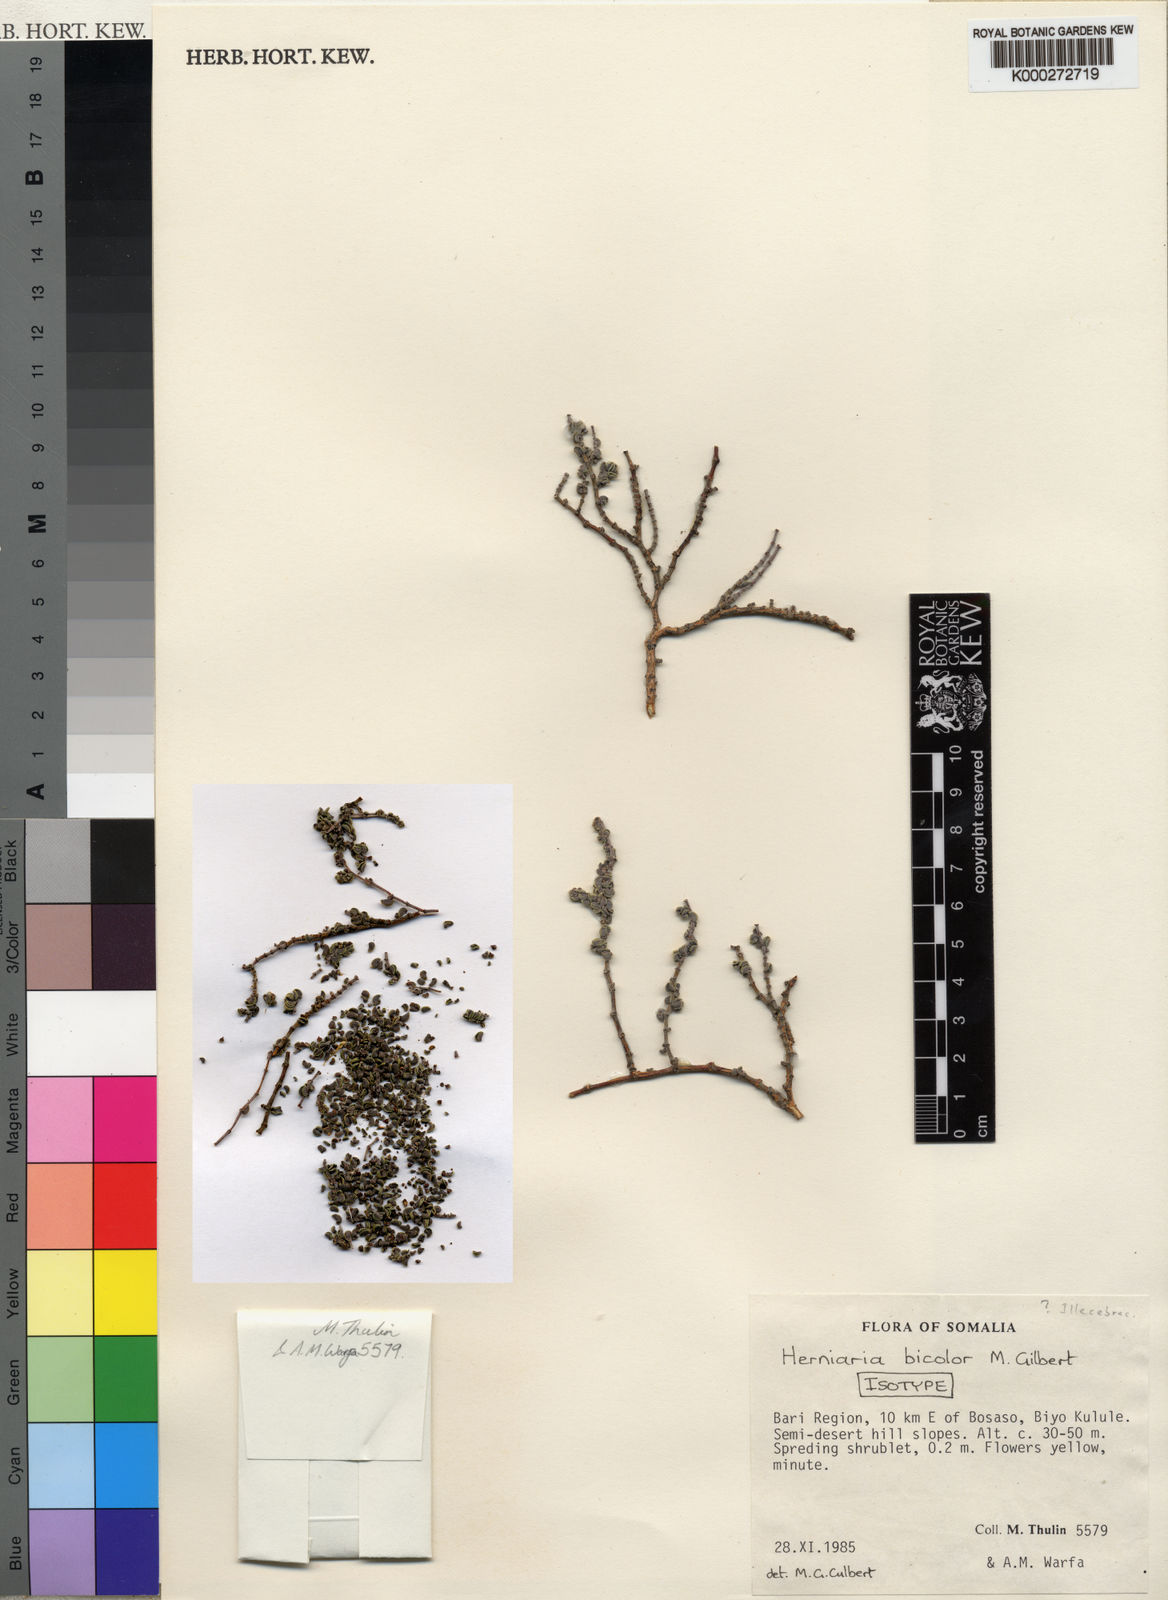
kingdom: Plantae
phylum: Tracheophyta
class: Magnoliopsida
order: Caryophyllales
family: Caryophyllaceae
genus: Herniaria
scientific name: Herniaria bicolor
